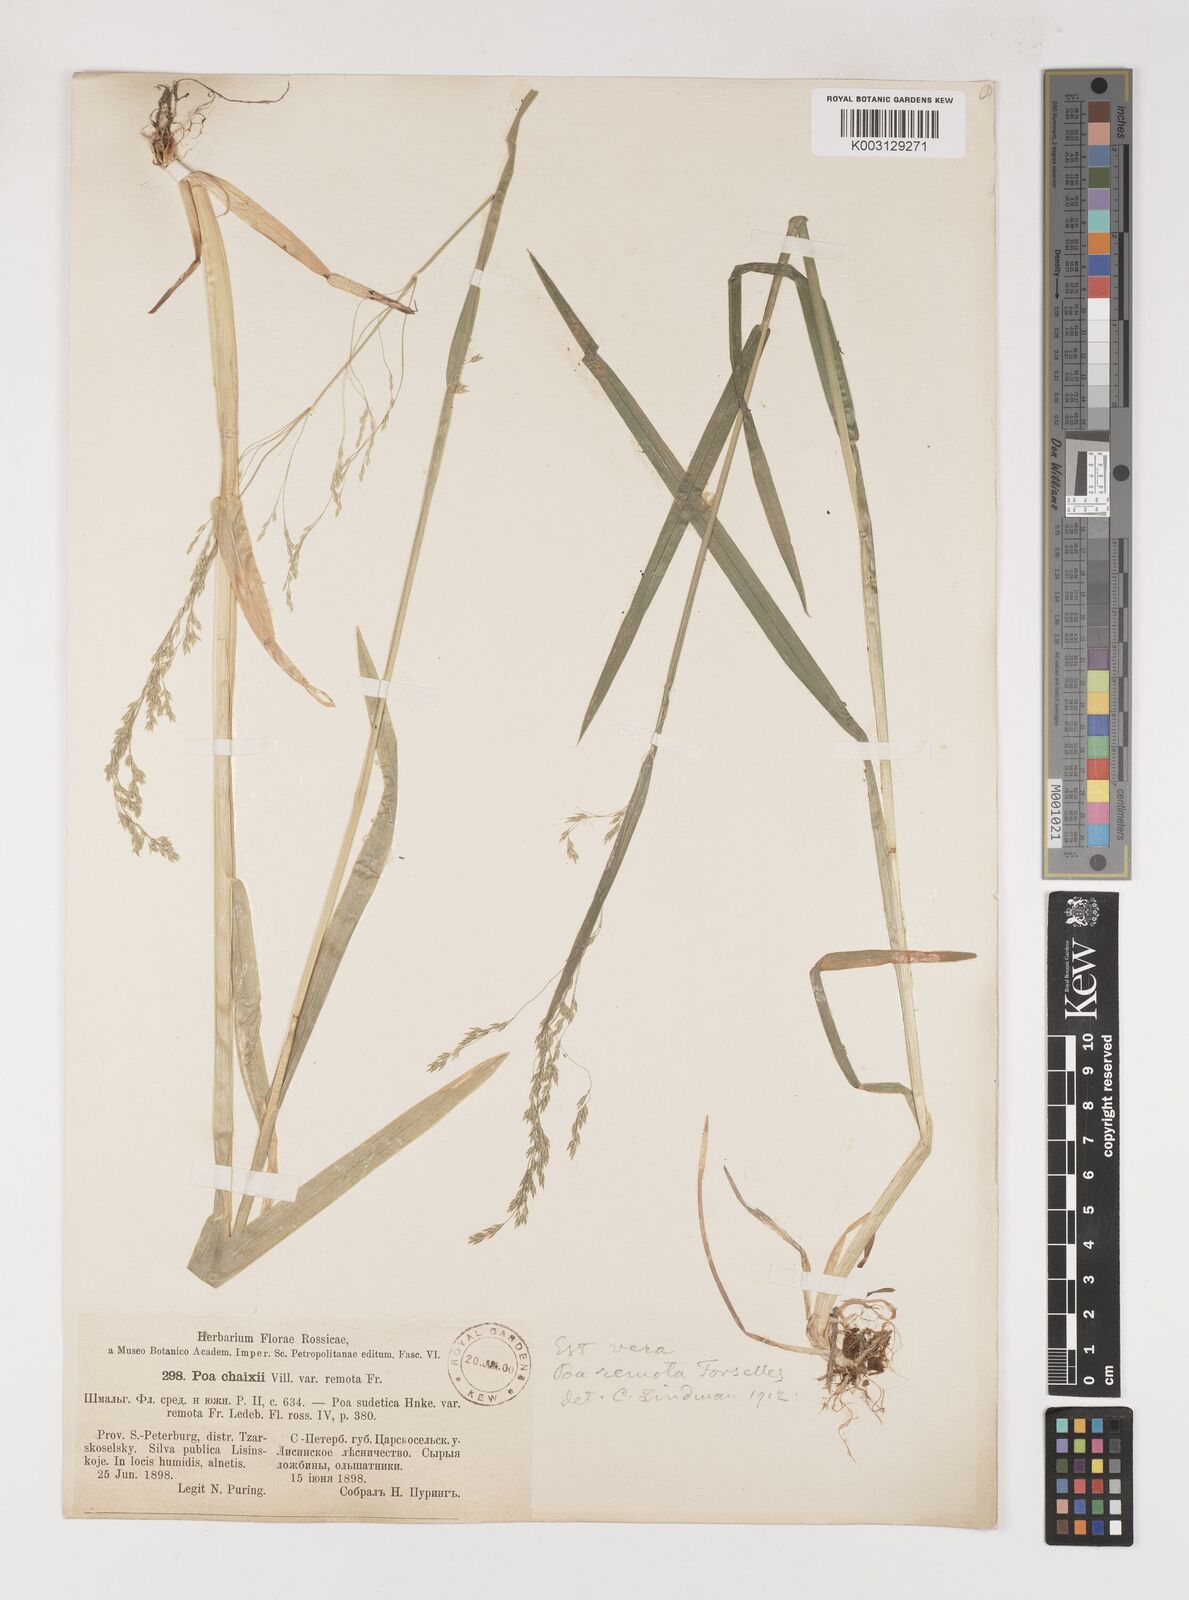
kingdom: Plantae
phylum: Tracheophyta
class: Liliopsida
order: Poales
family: Poaceae
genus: Poa
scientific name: Poa remota
